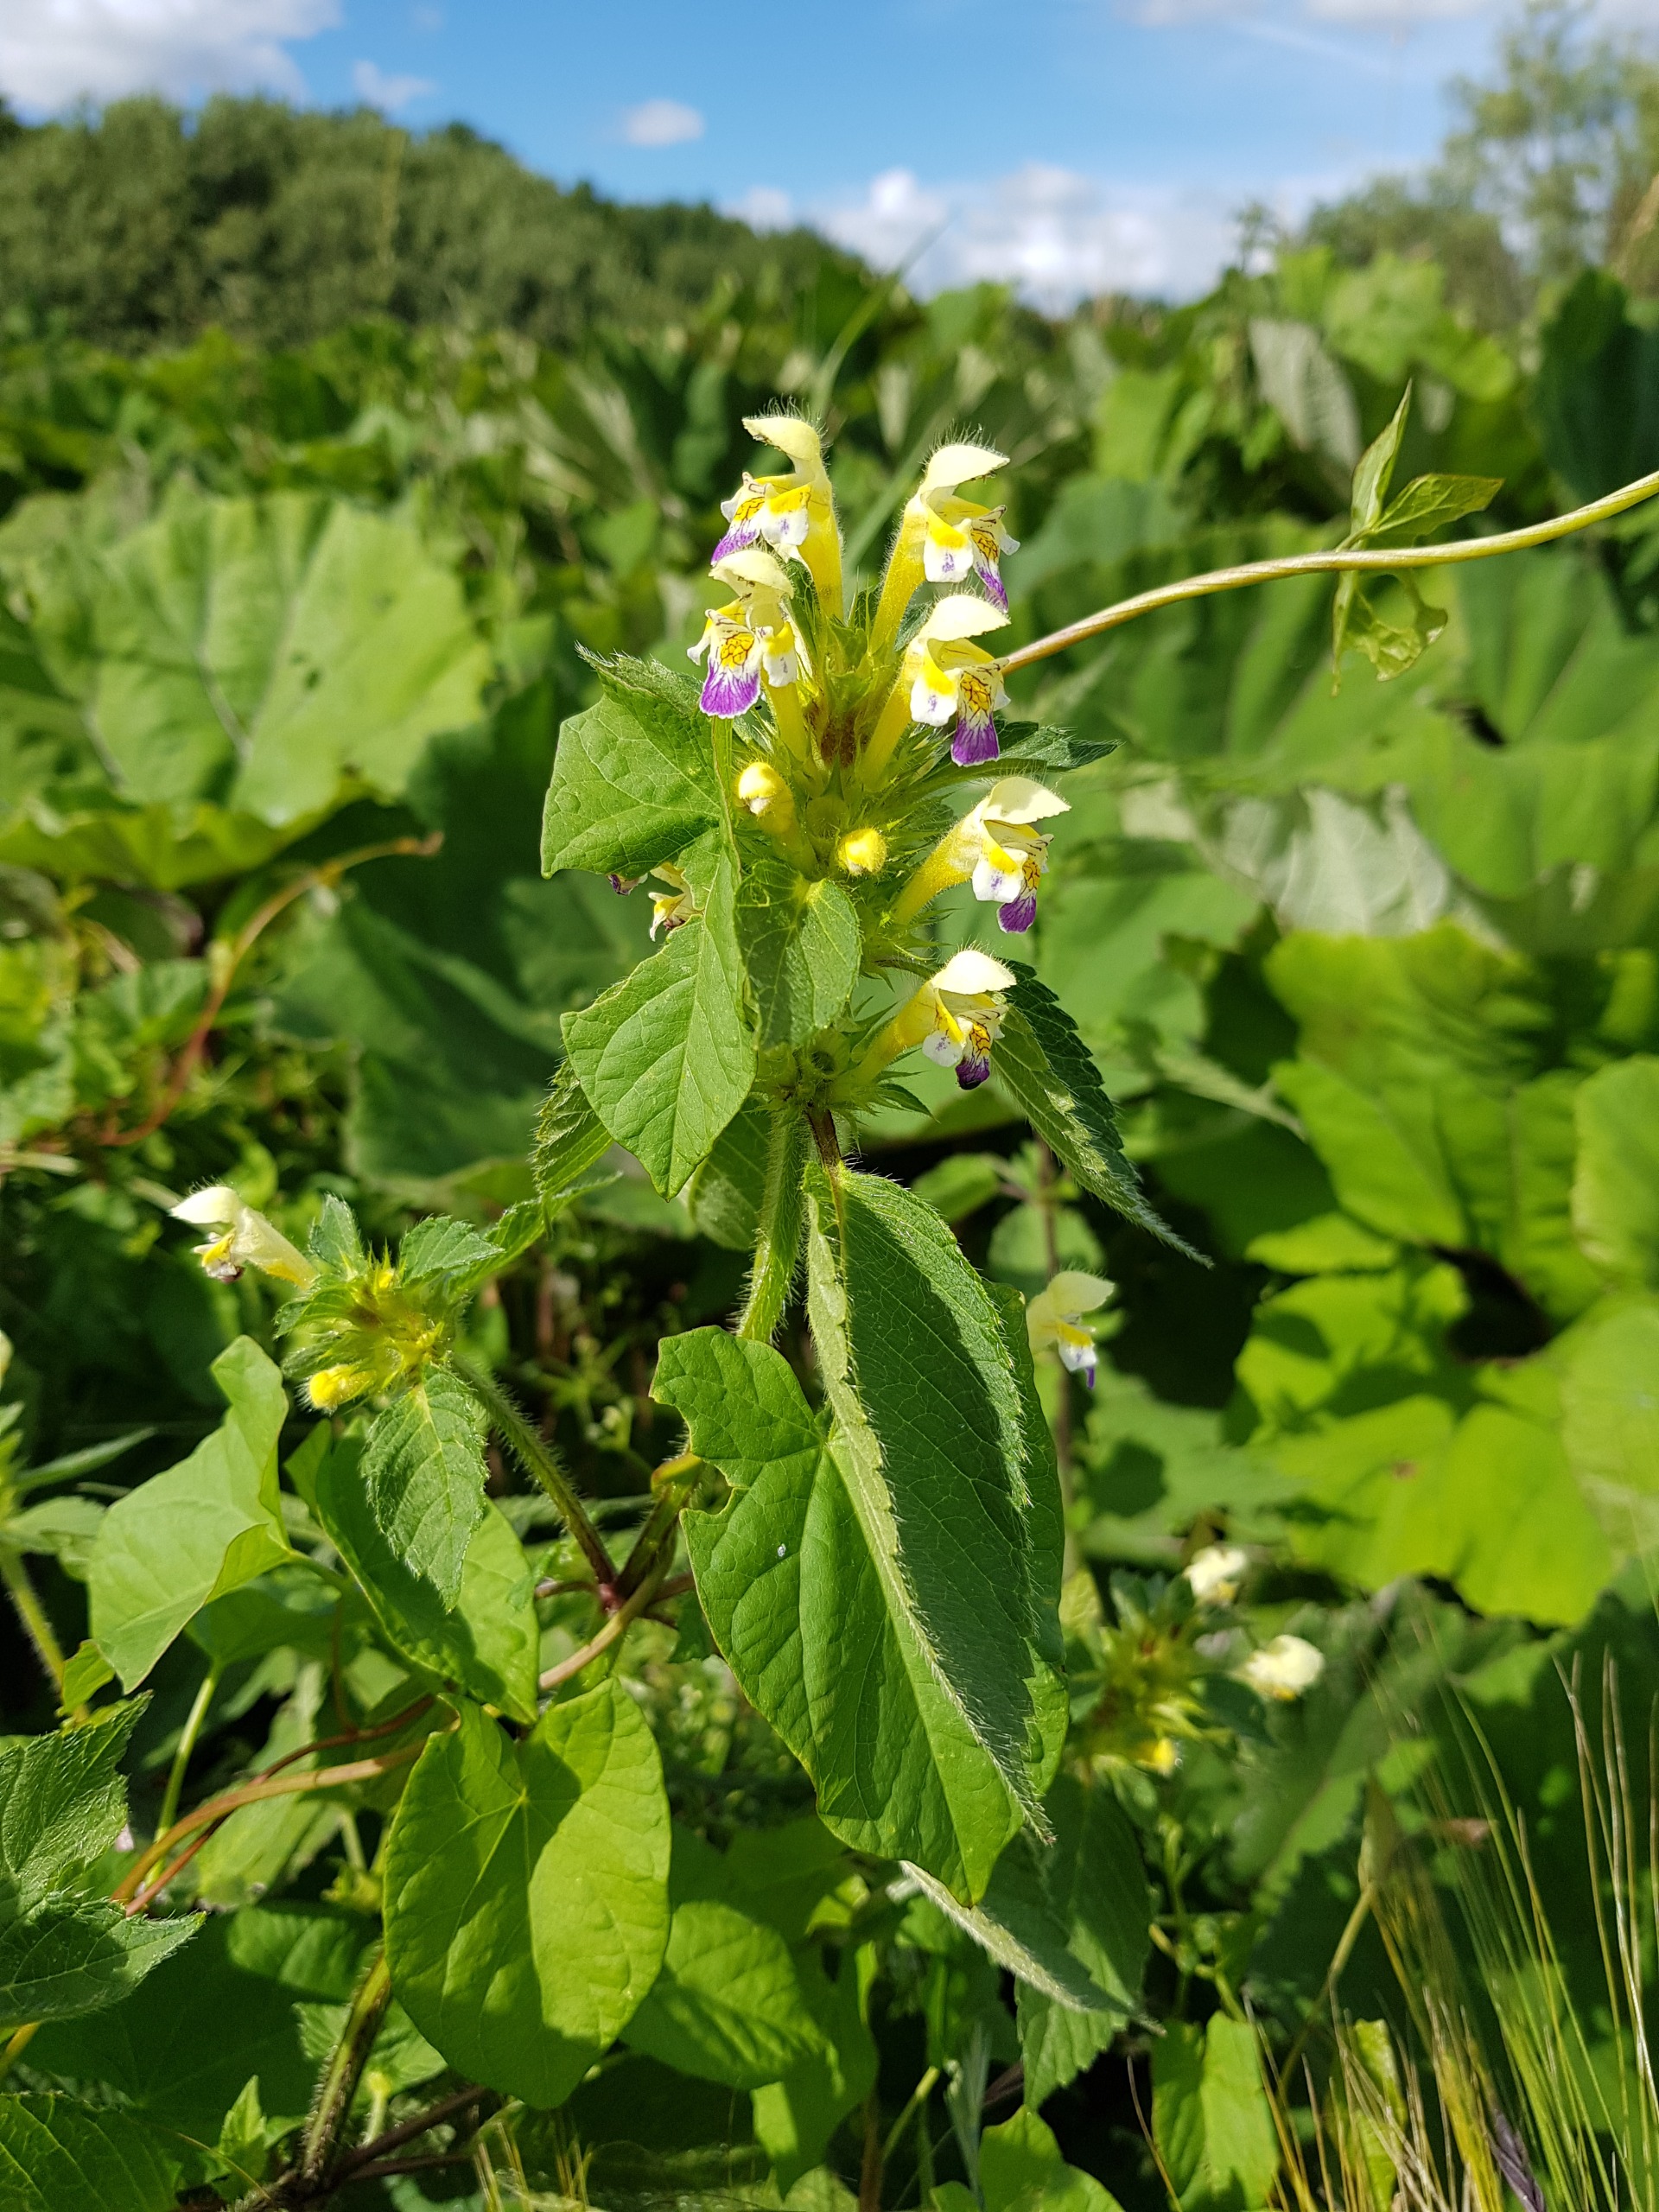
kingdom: Plantae
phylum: Tracheophyta
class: Magnoliopsida
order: Lamiales
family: Lamiaceae
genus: Galeopsis
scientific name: Galeopsis speciosa
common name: Hamp-hanekro
